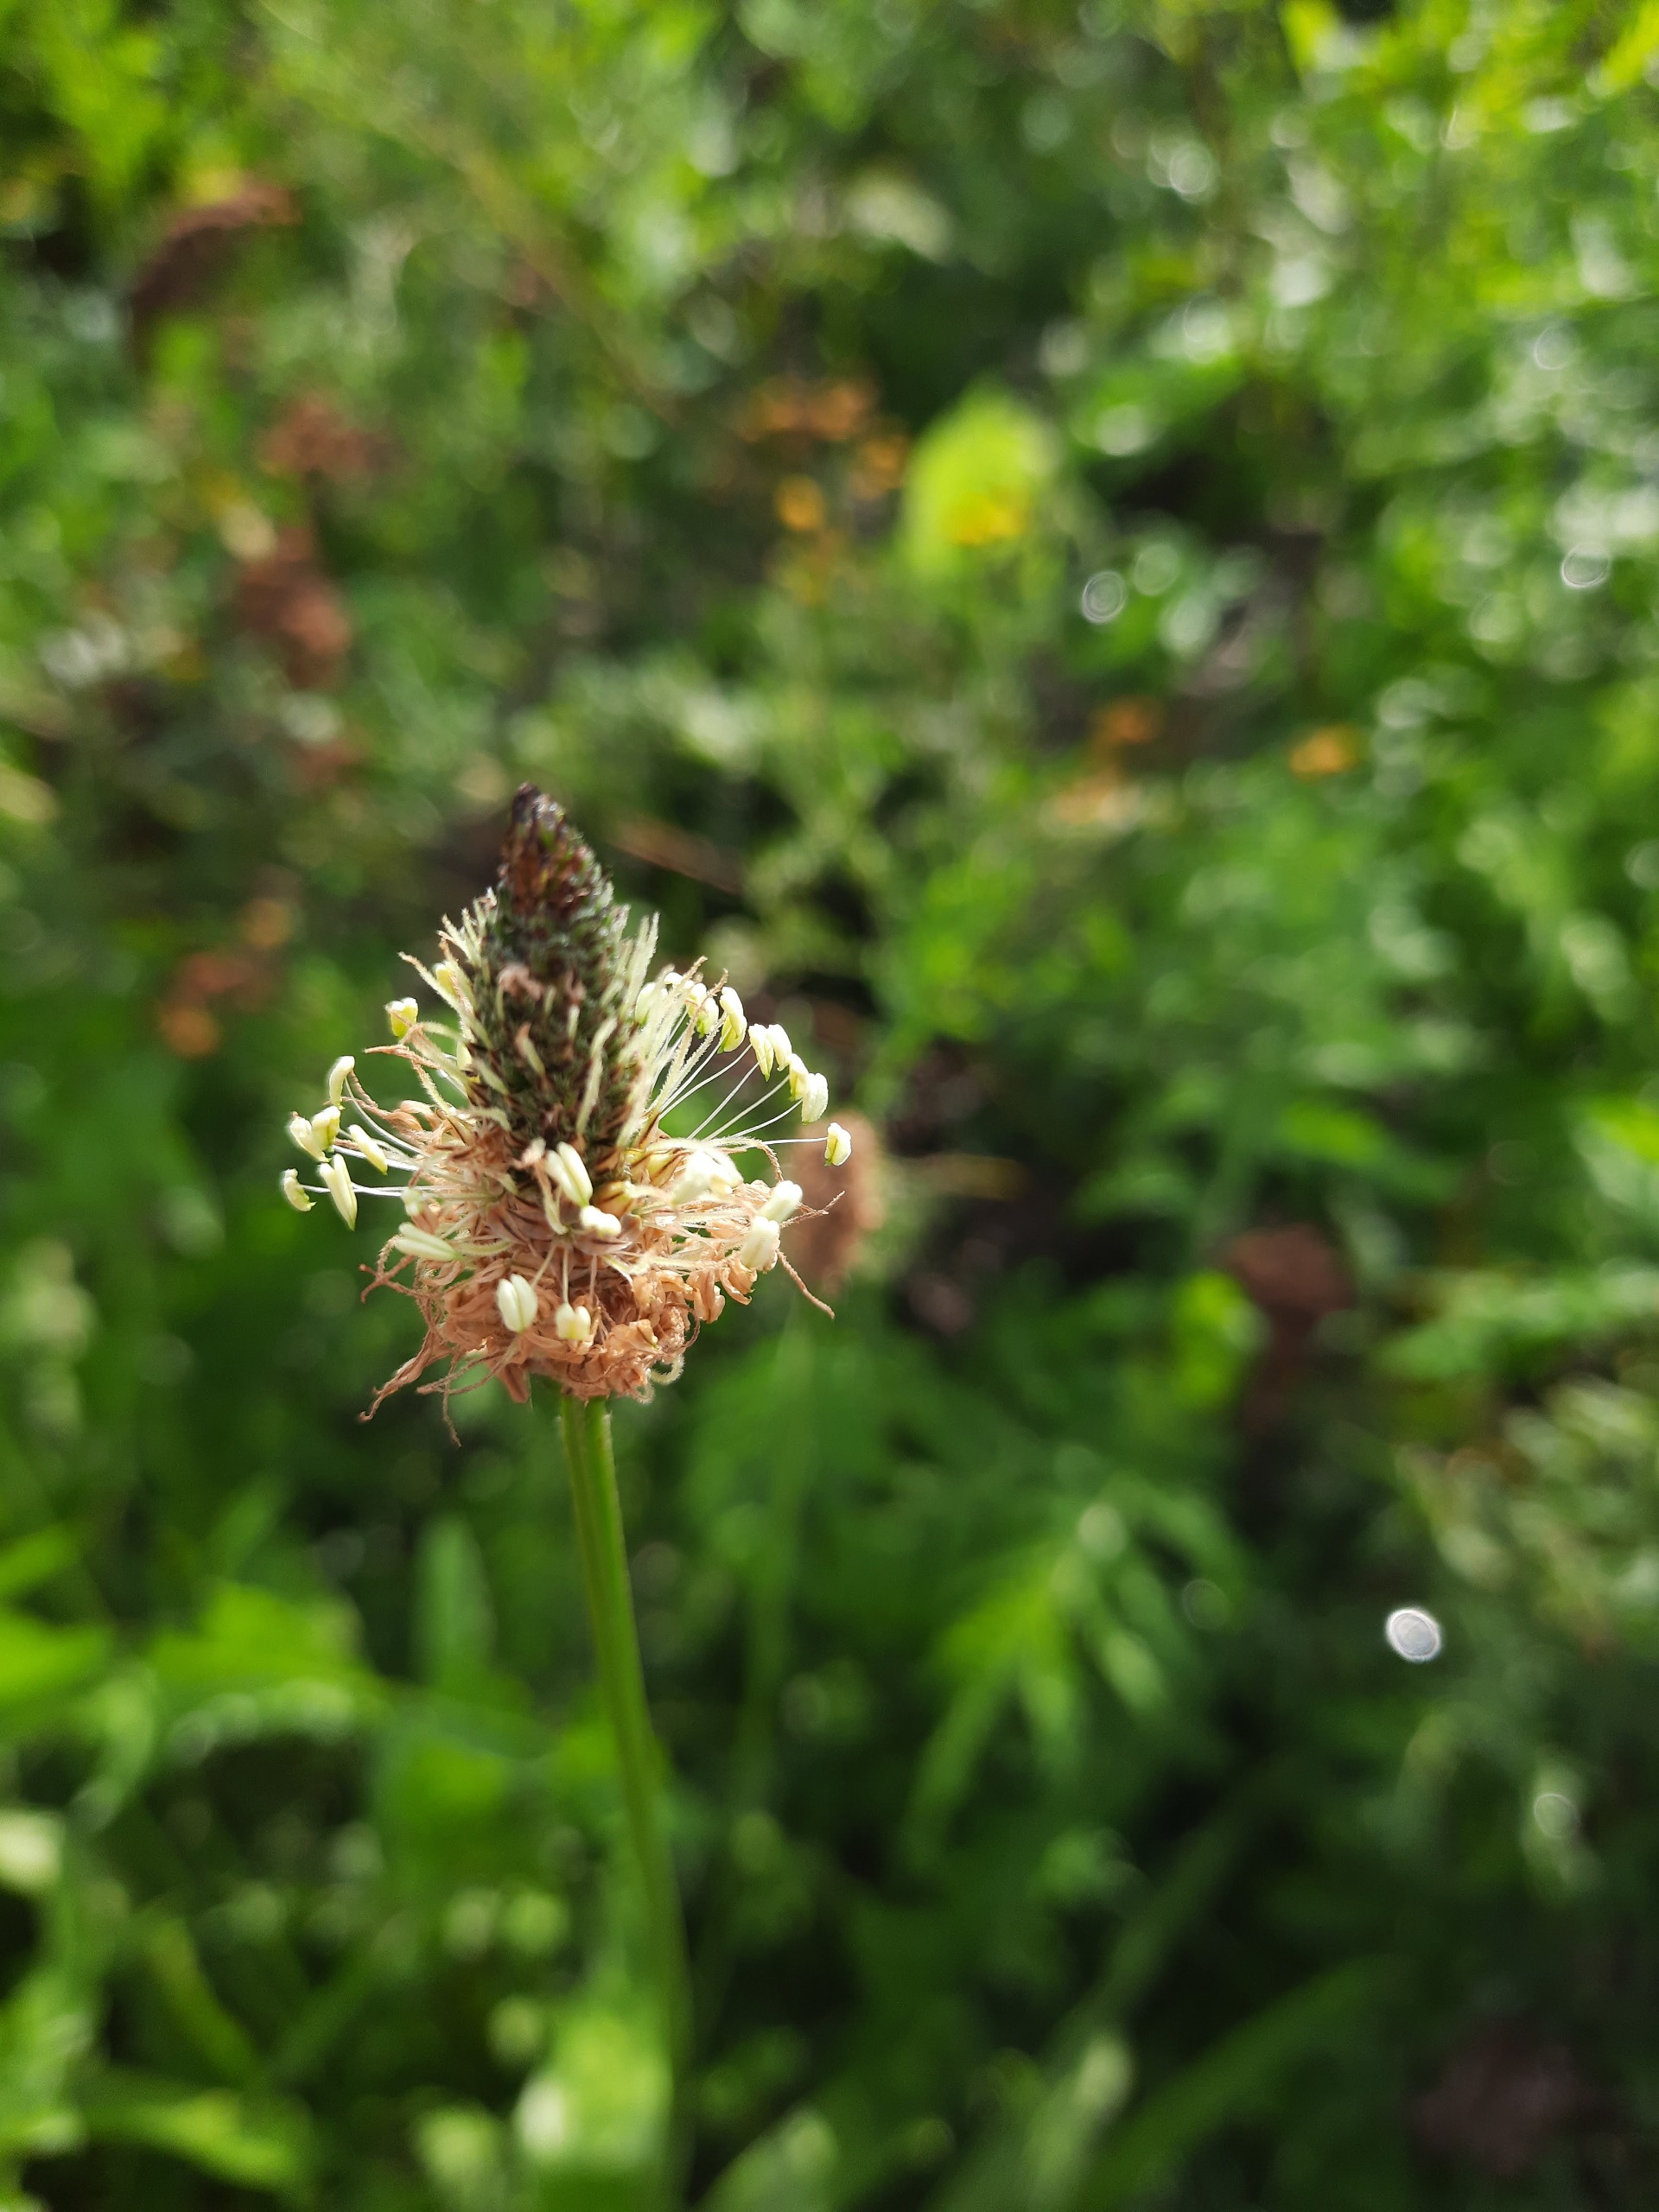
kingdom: Plantae
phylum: Tracheophyta
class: Magnoliopsida
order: Lamiales
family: Plantaginaceae
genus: Plantago
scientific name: Plantago lanceolata
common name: Lancet-vejbred
